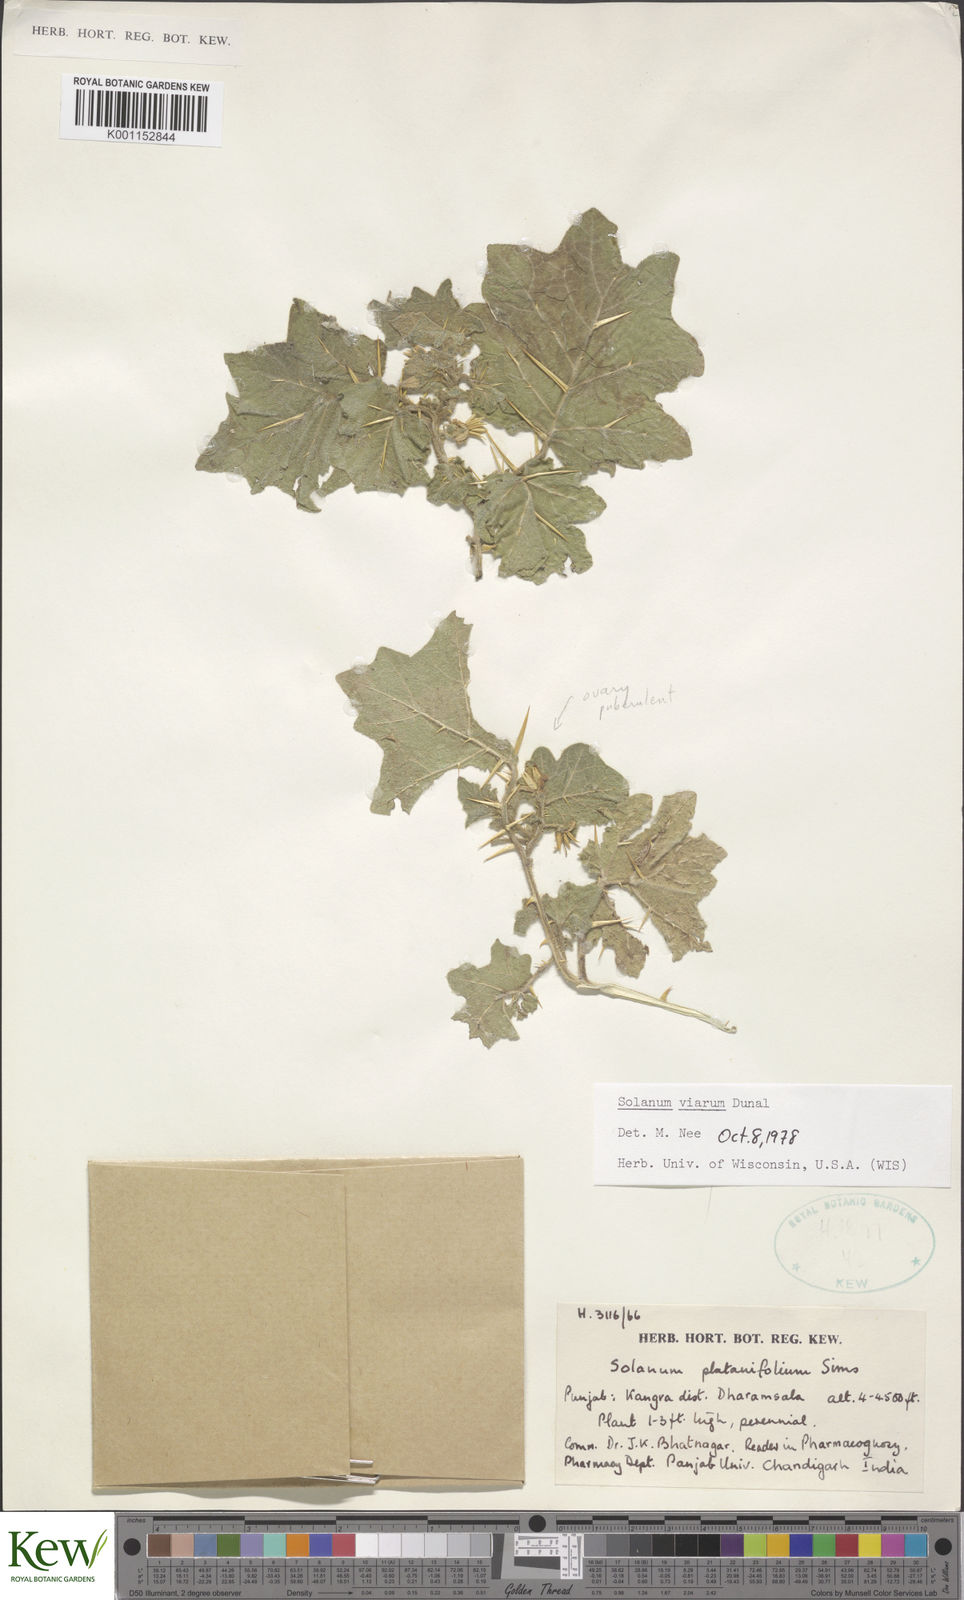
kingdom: Plantae
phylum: Tracheophyta
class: Magnoliopsida
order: Solanales
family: Solanaceae
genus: Solanum
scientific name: Solanum viarum
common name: Tropical soda apple
